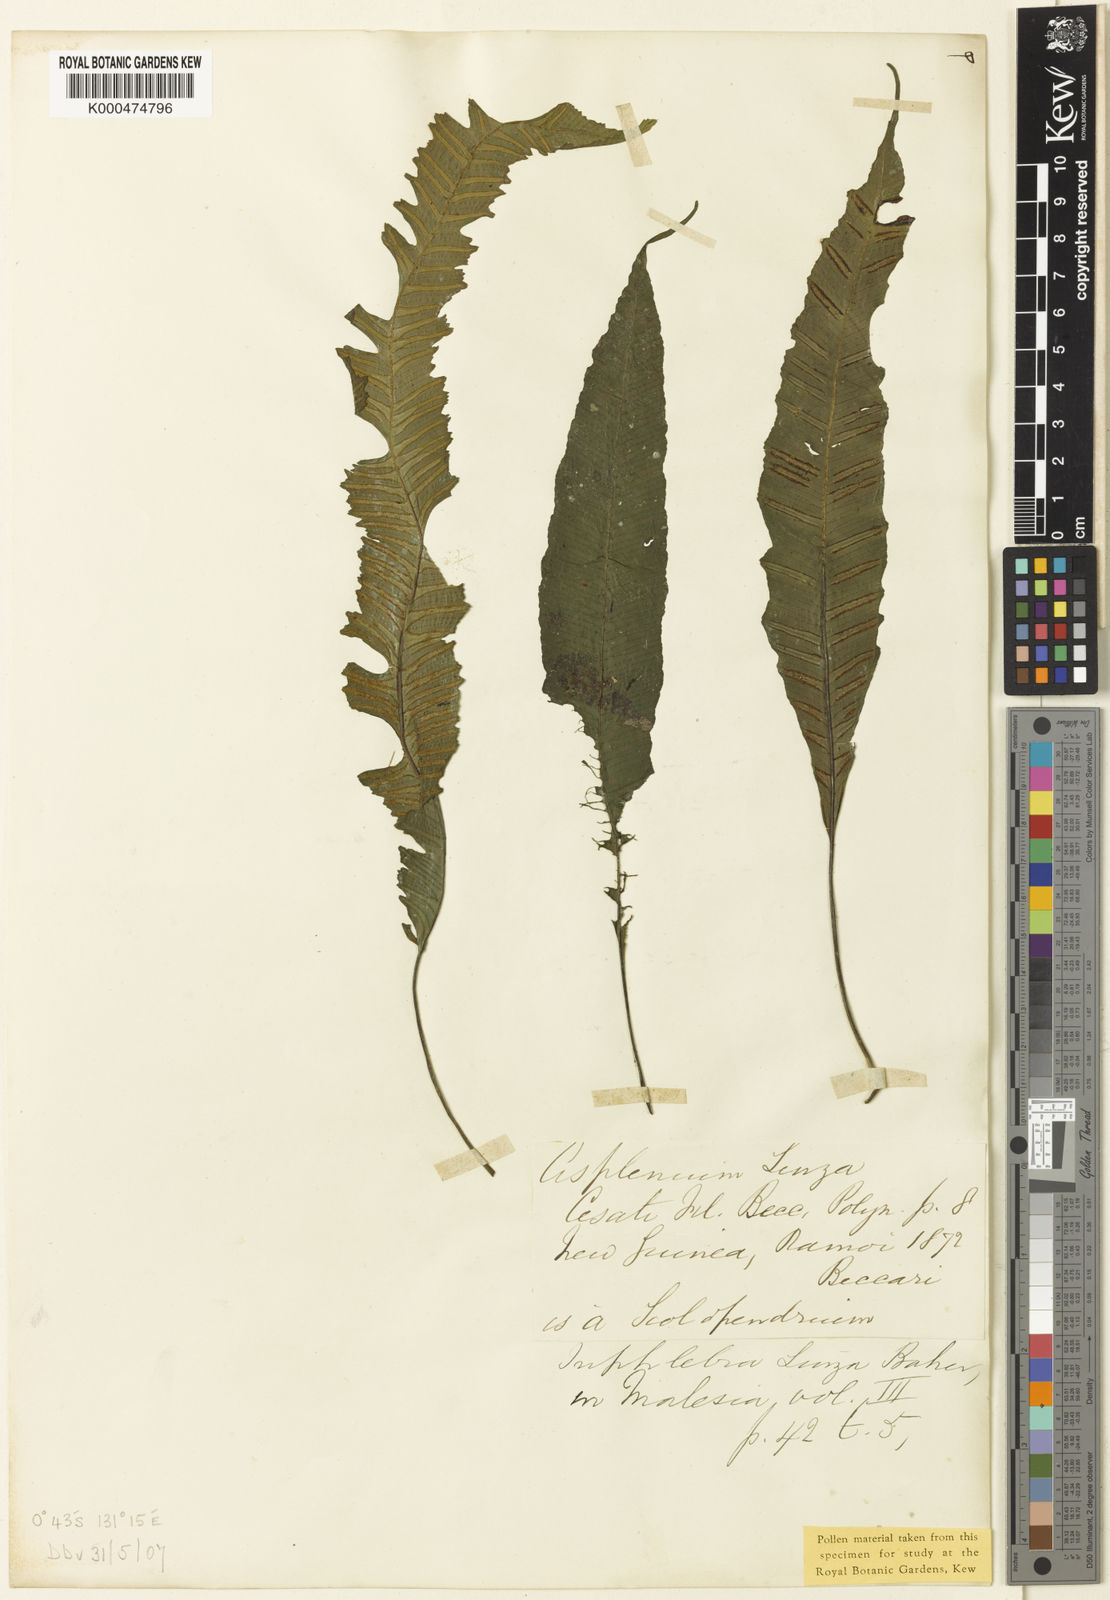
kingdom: Plantae
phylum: Tracheophyta
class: Polypodiopsida
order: Polypodiales
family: Aspleniaceae
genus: Asplenium
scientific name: Asplenium Diplora durvillaei
